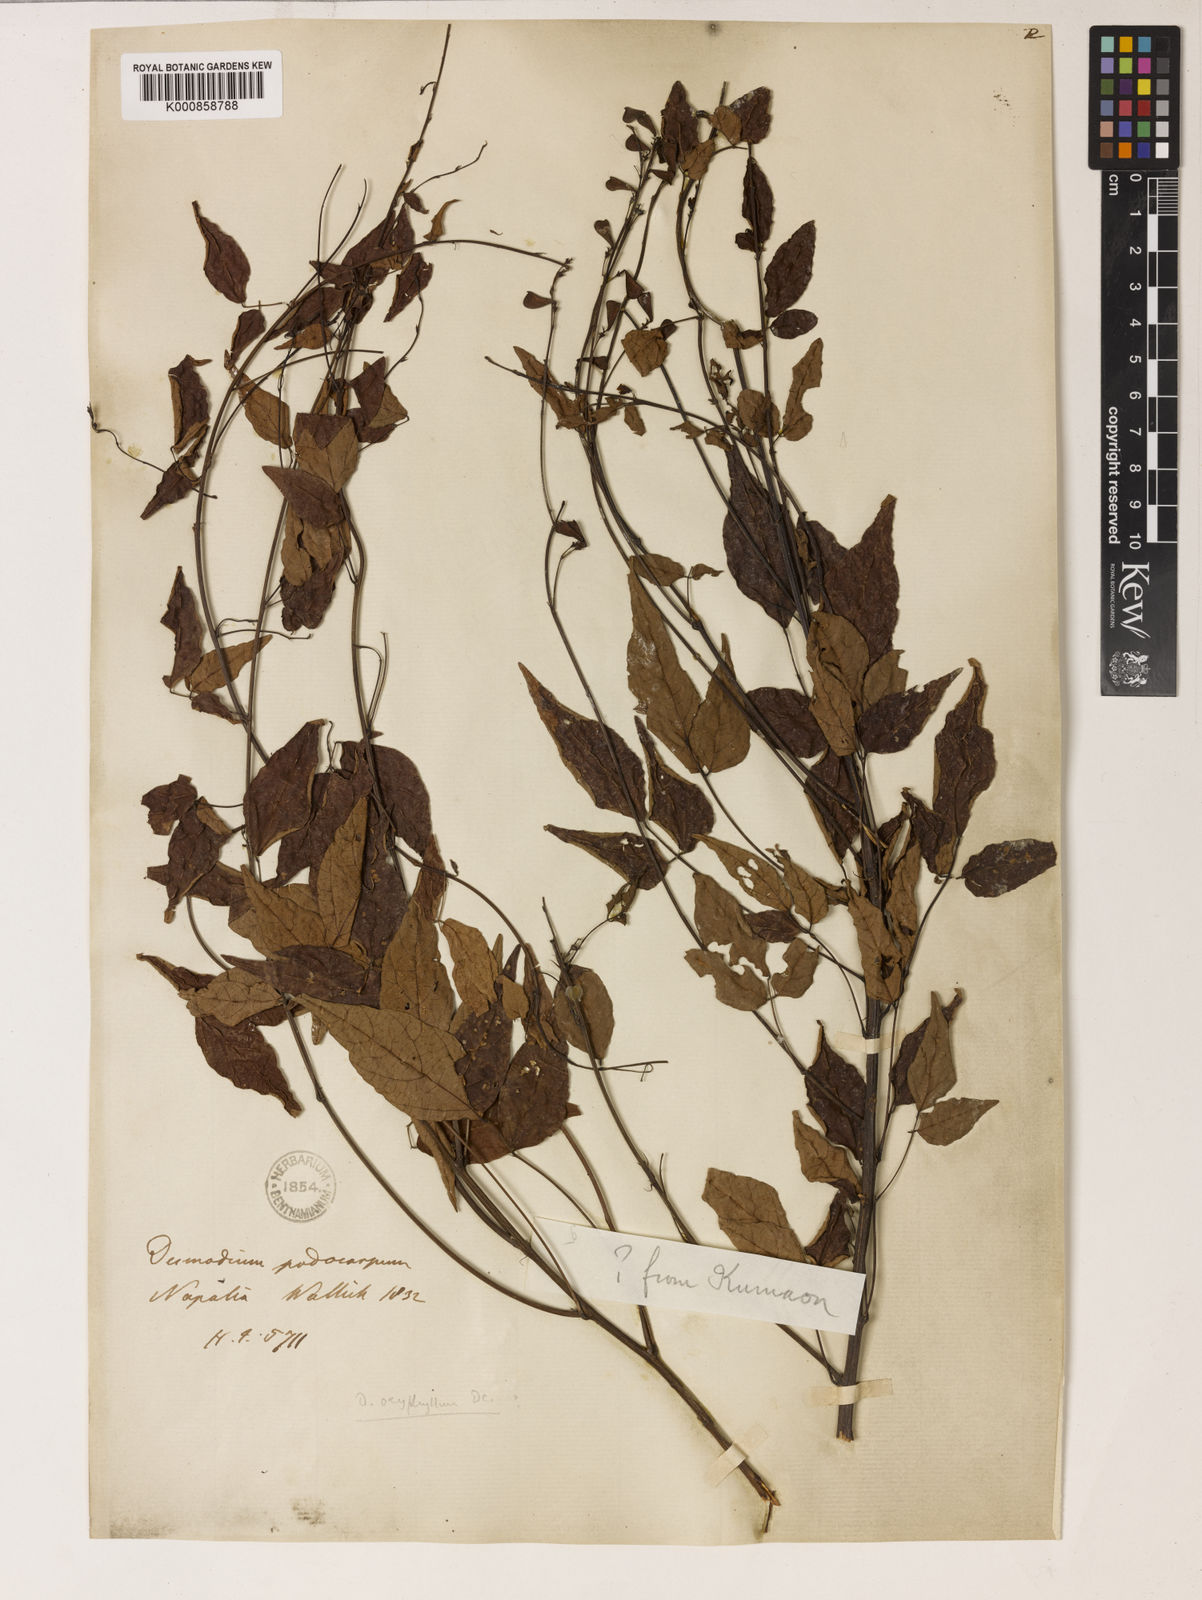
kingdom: Plantae
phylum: Tracheophyta
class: Magnoliopsida
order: Fabales
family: Fabaceae
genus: Hylodesmum
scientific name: Hylodesmum podocarpum
